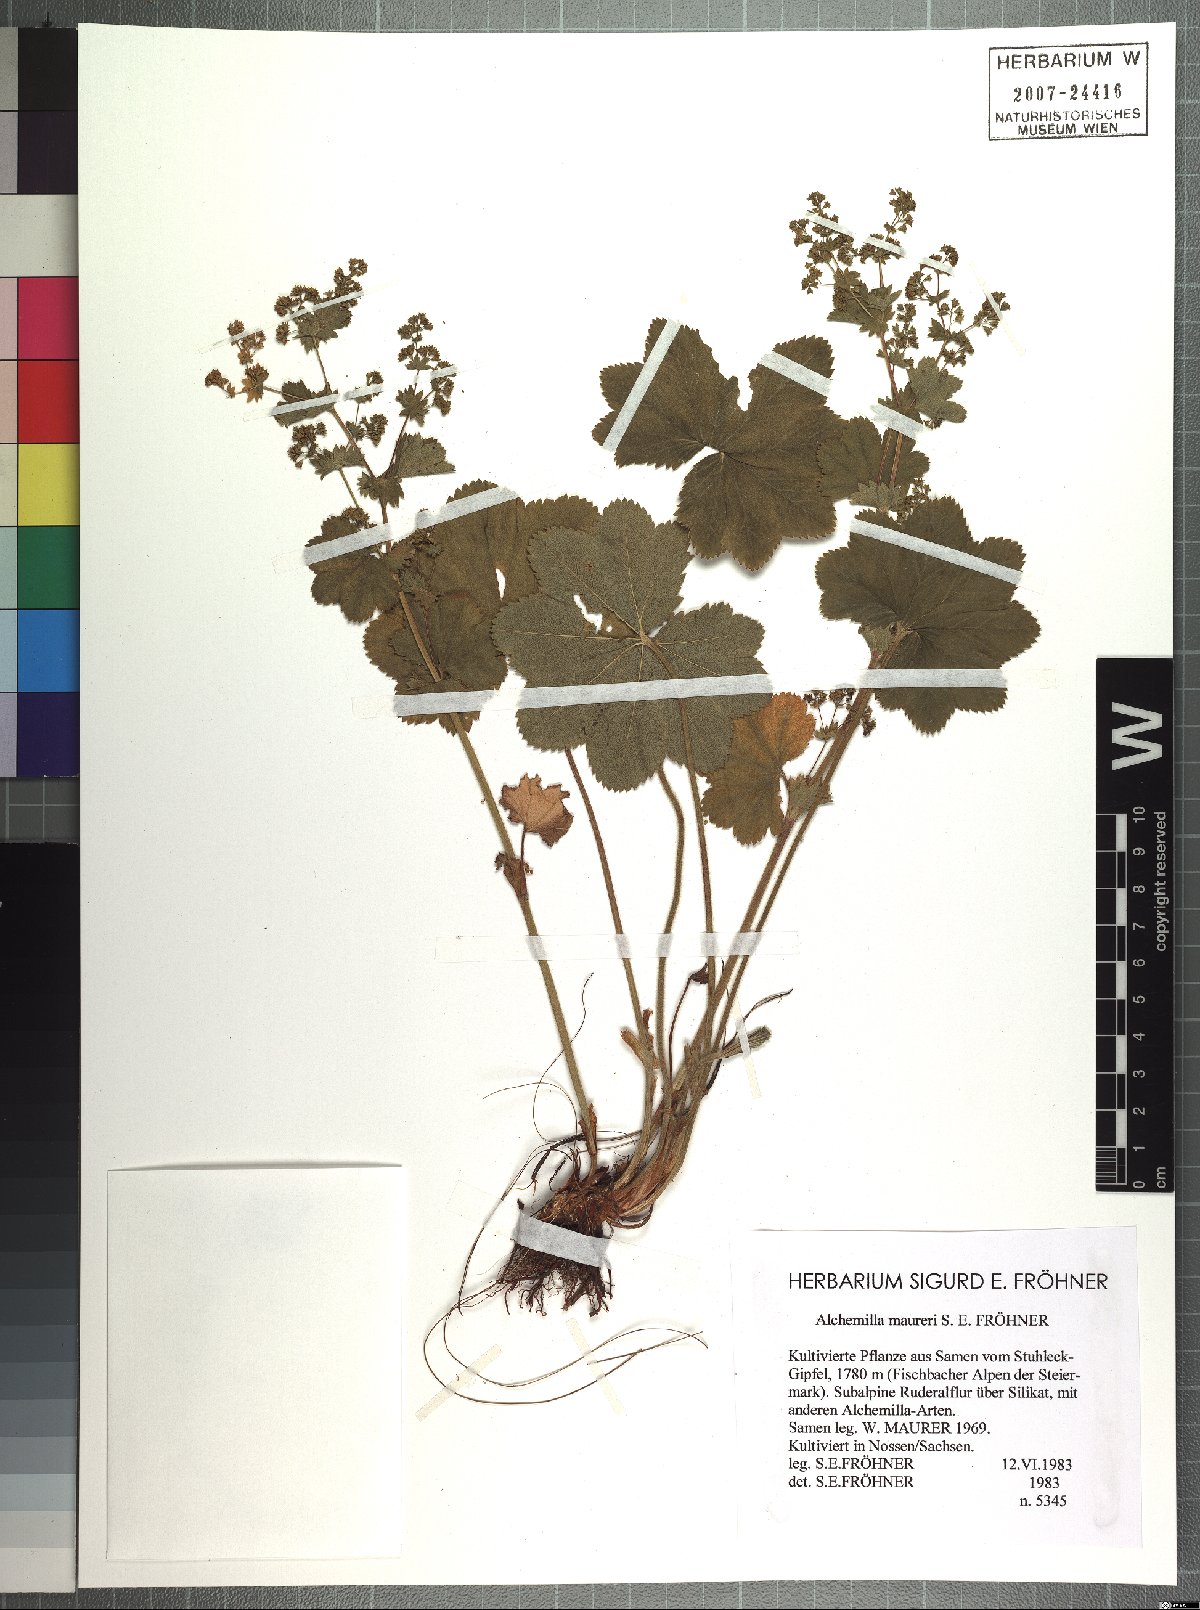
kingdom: Plantae
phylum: Tracheophyta
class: Magnoliopsida
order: Rosales
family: Rosaceae
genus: Alchemilla
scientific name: Alchemilla maureri
